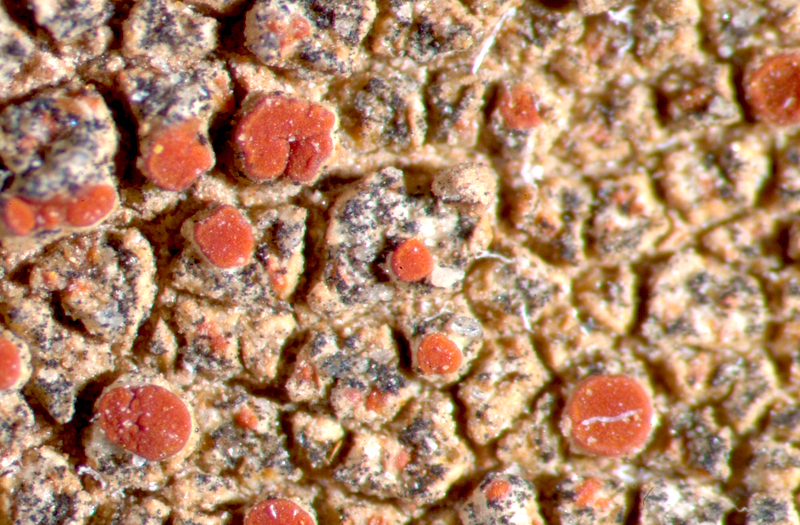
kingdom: Fungi
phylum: Ascomycota
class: Lecanoromycetes
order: Teloschistales
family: Teloschistaceae
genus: Caloplaca
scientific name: Caloplaca
